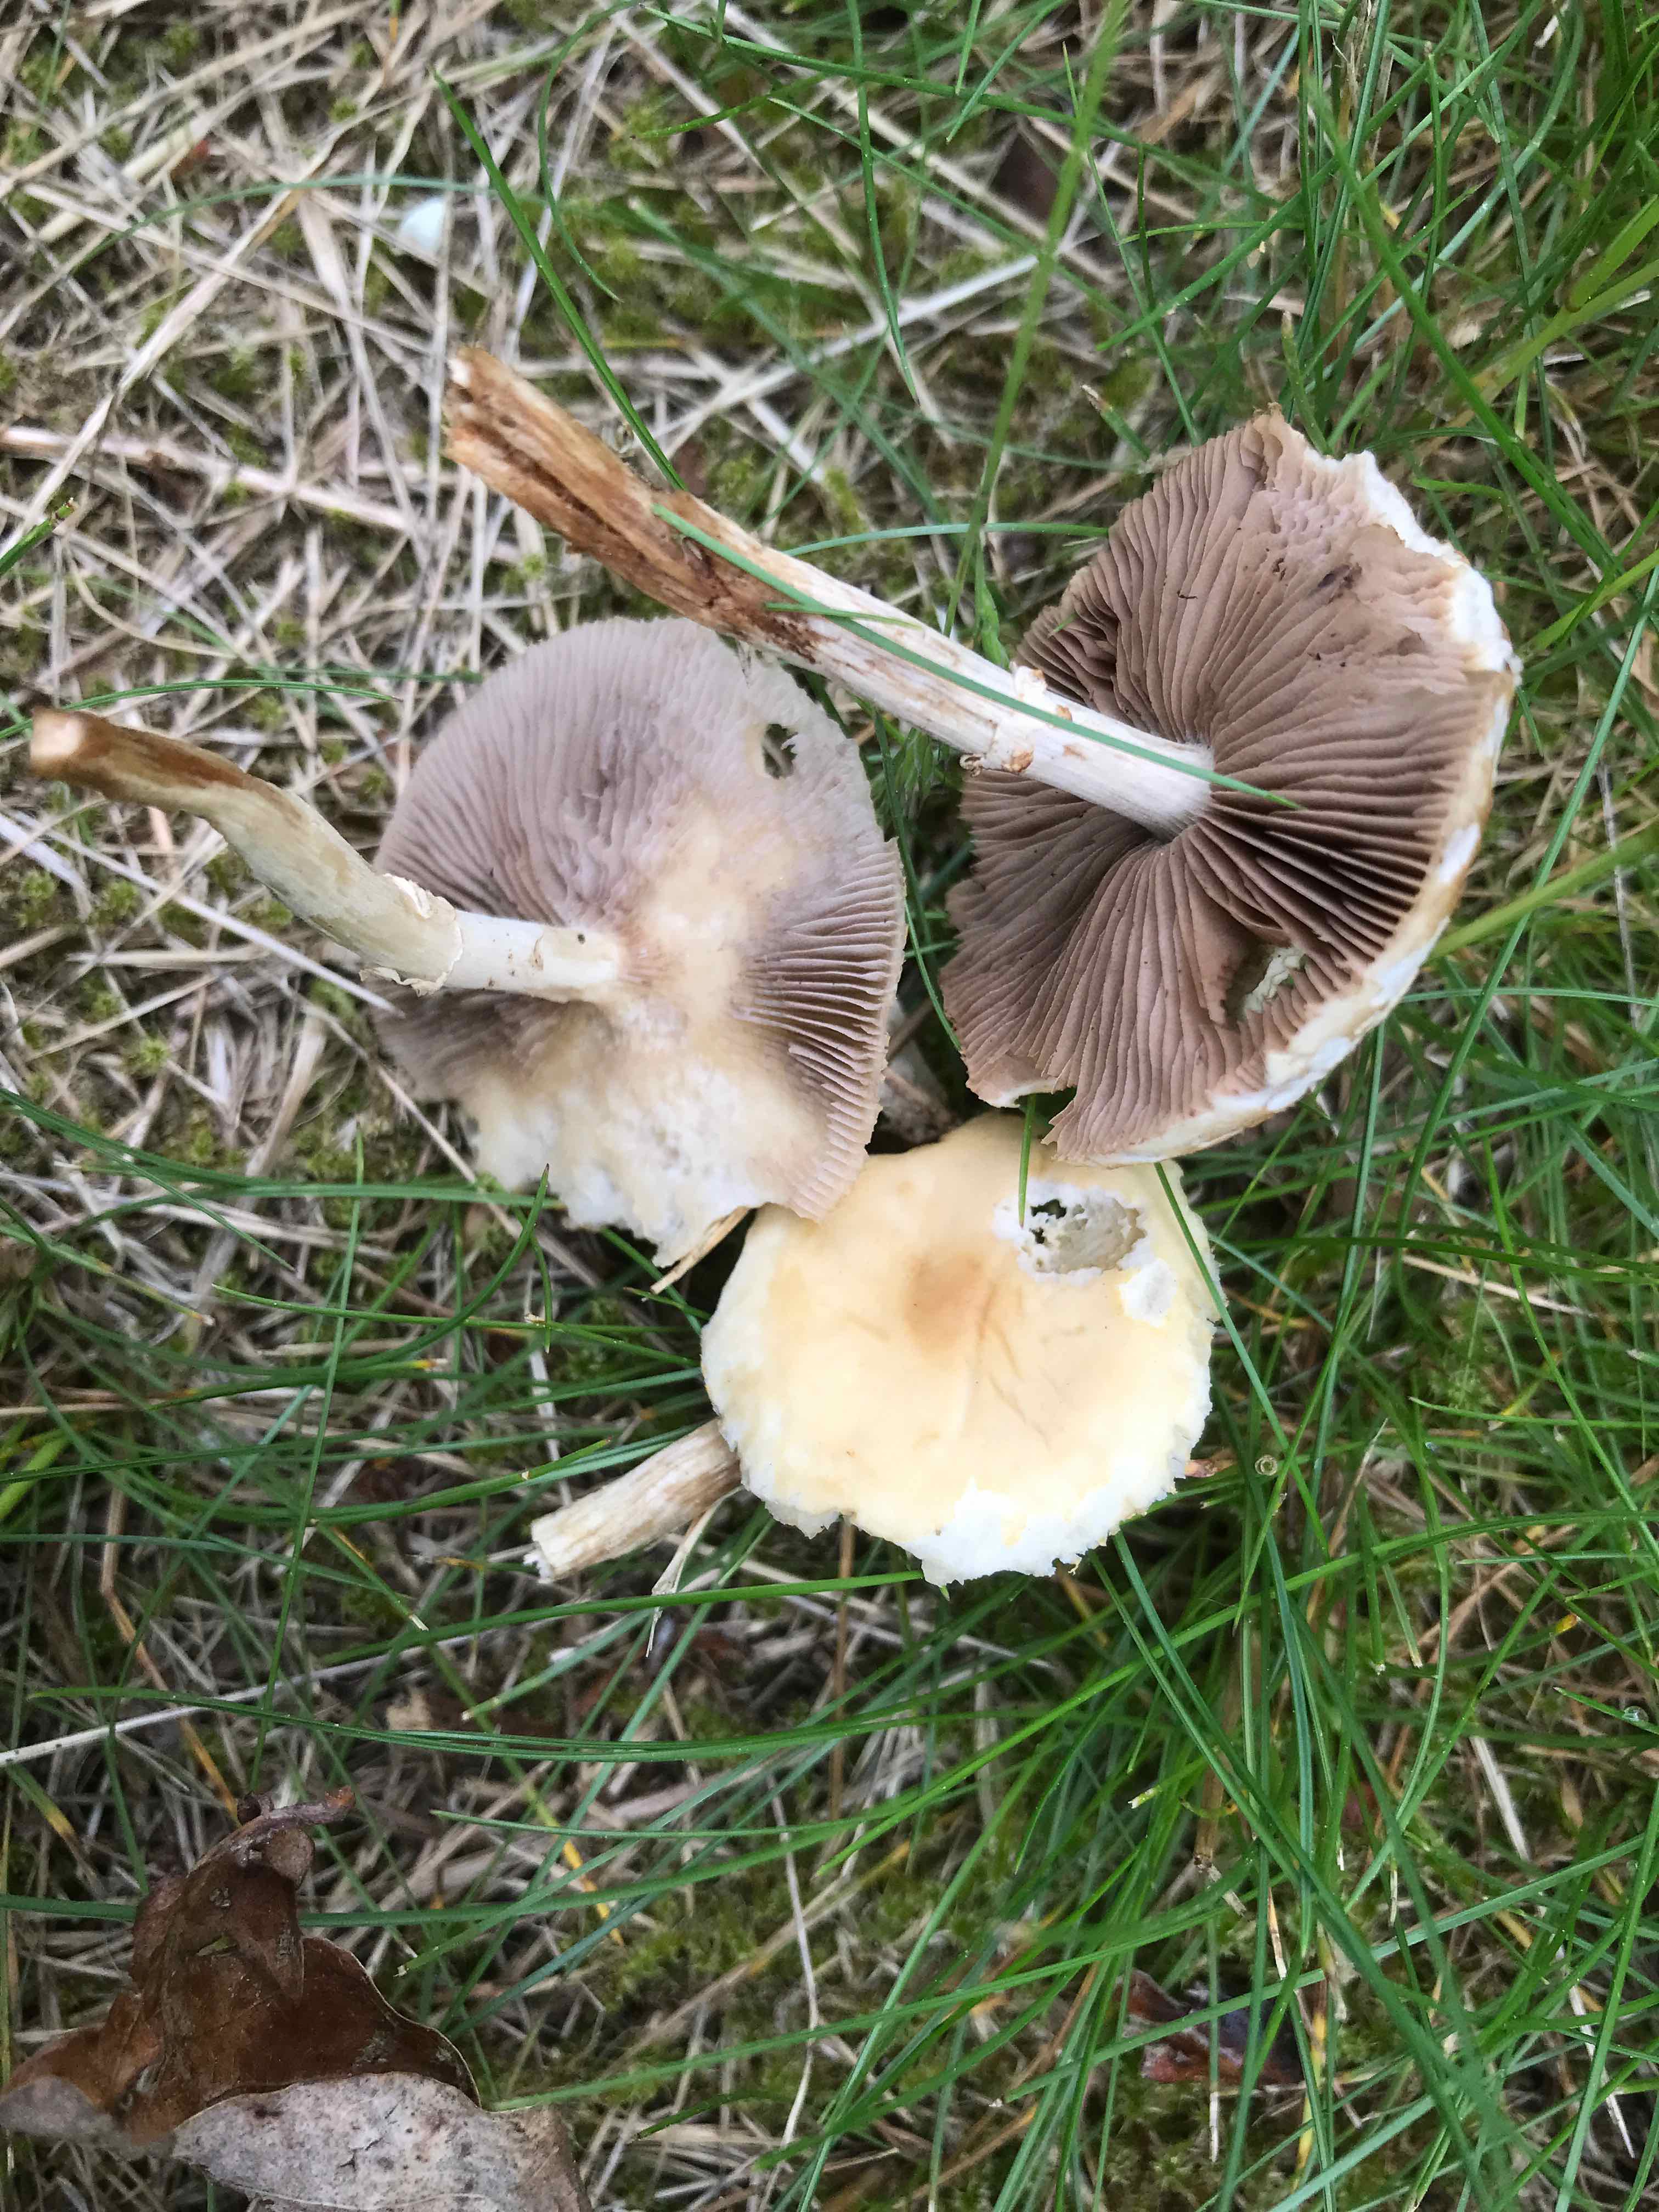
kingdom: Fungi
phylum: Basidiomycota
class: Agaricomycetes
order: Agaricales
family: Strophariaceae
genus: Agrocybe
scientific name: Agrocybe praecox
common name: tidlig agerhat
